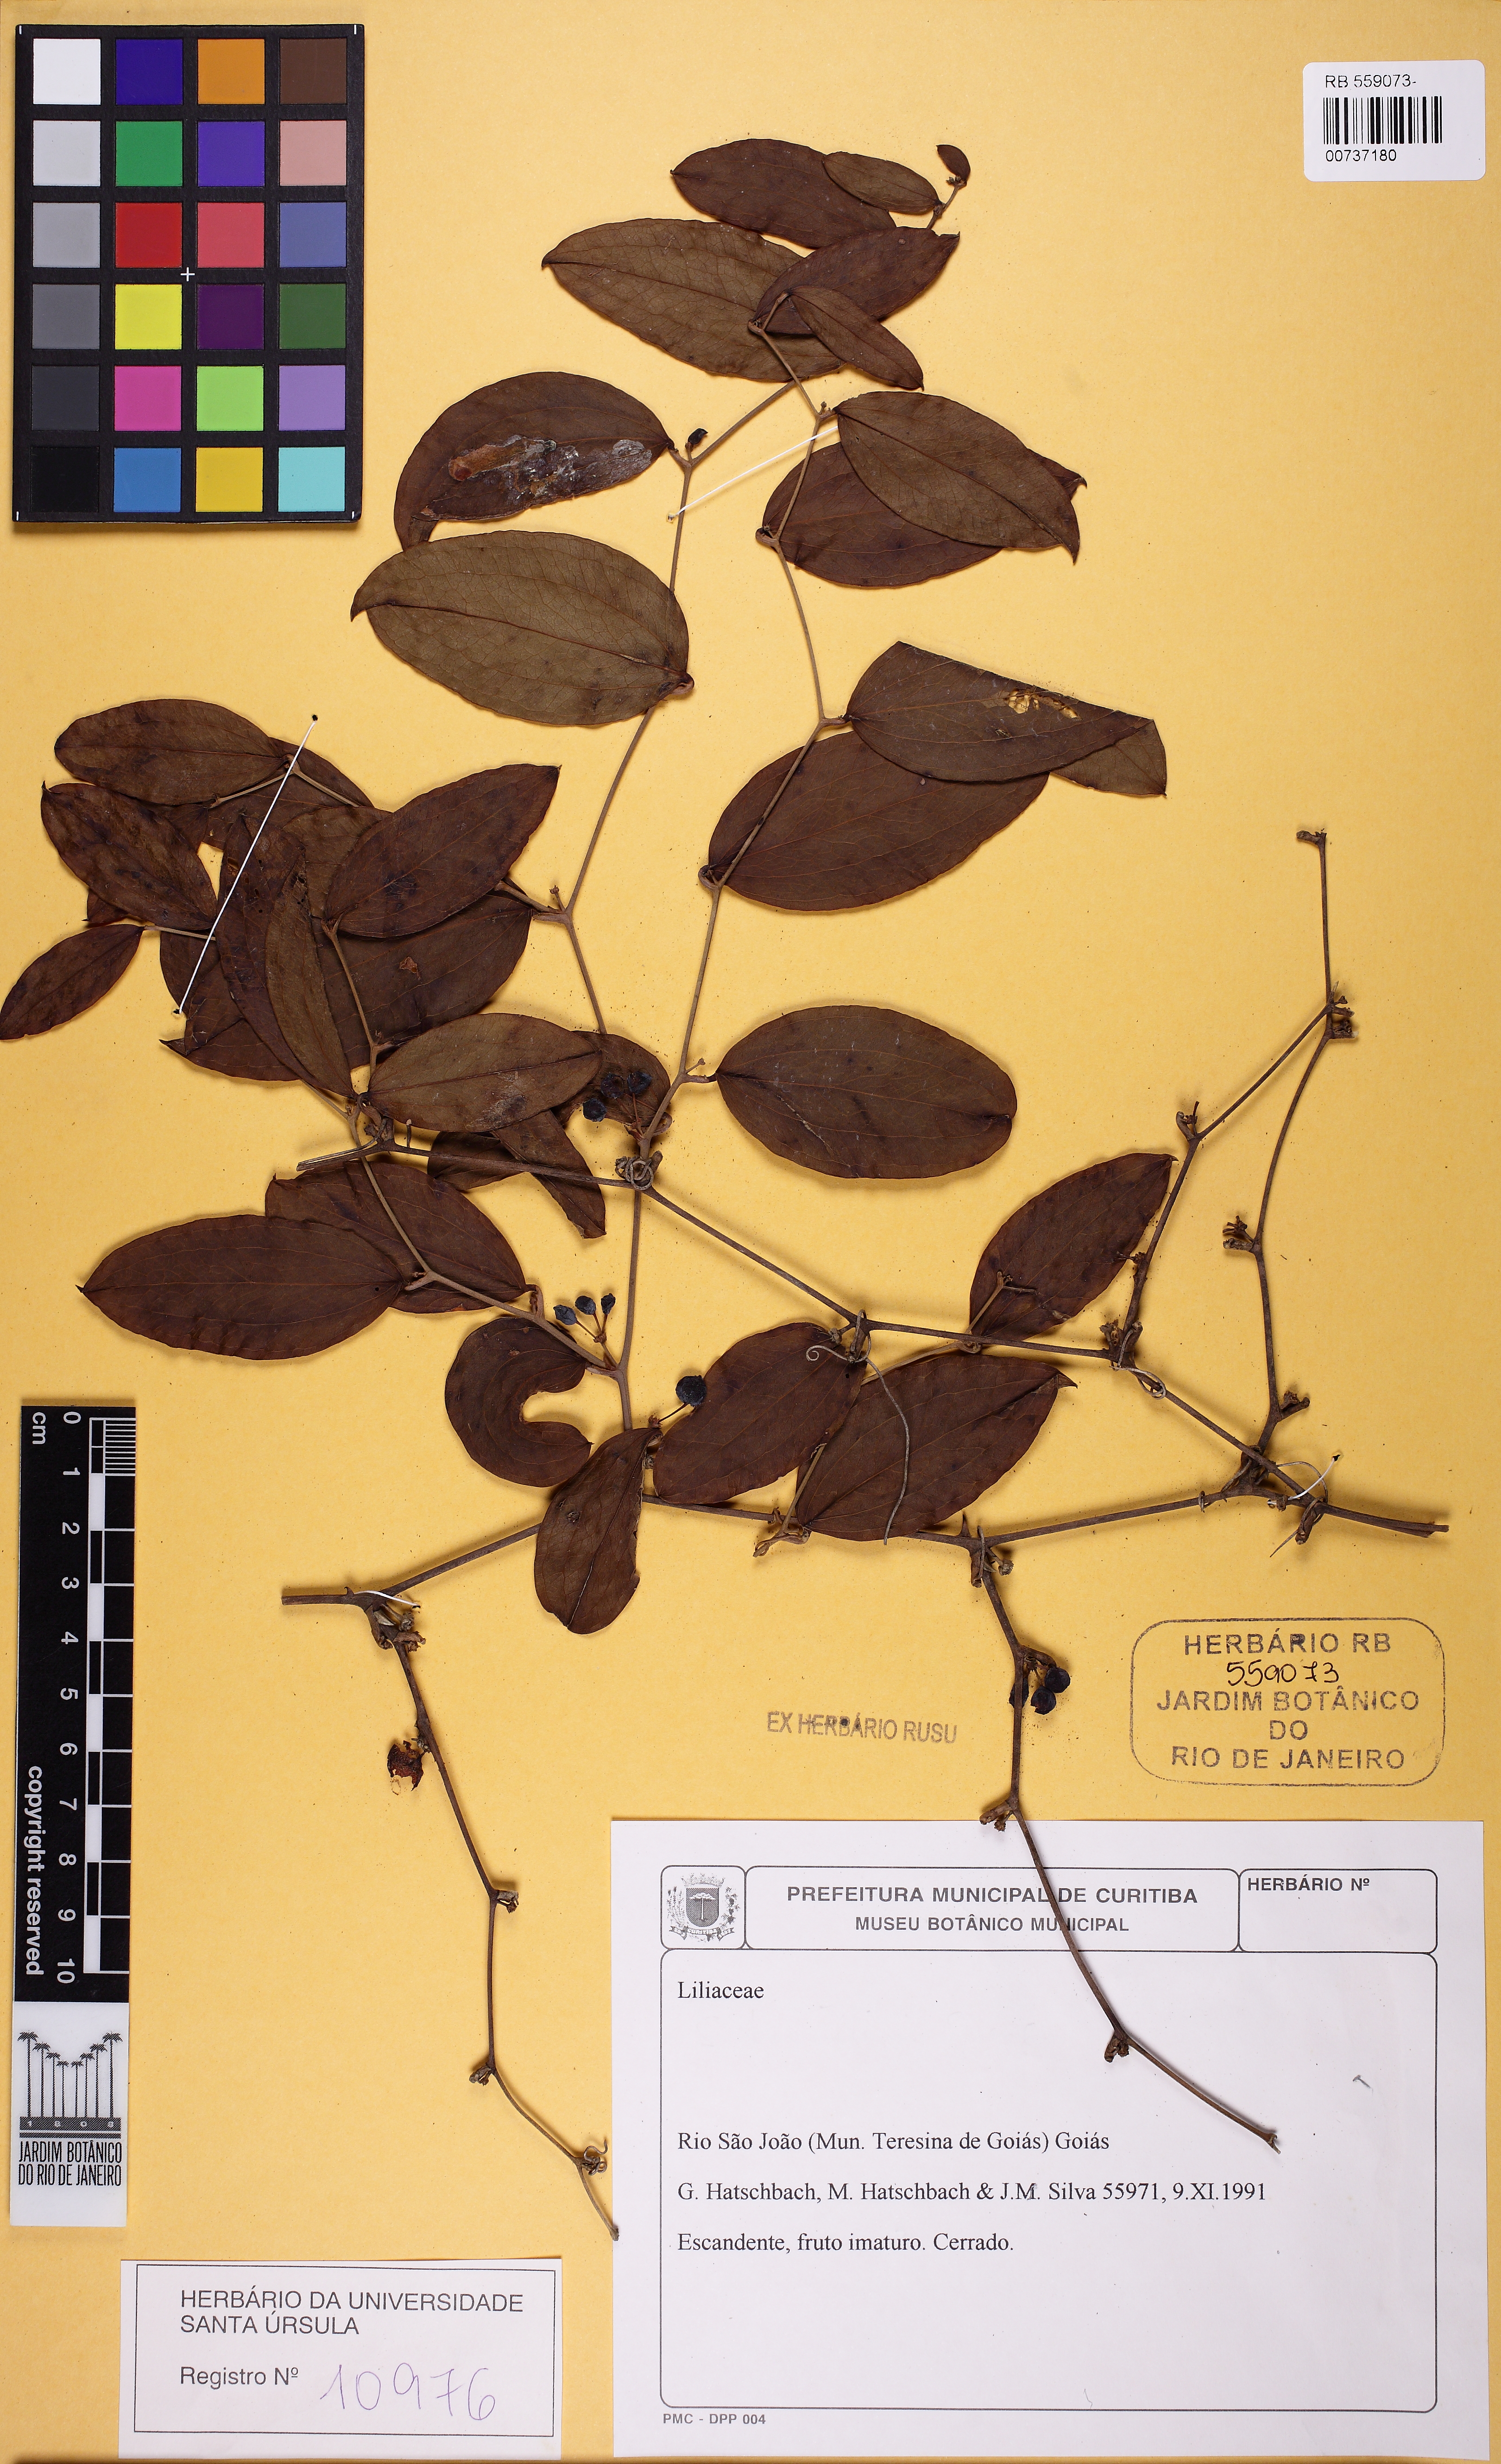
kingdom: Plantae
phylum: Tracheophyta
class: Liliopsida
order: Liliales
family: Smilacaceae
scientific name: Smilacaceae
